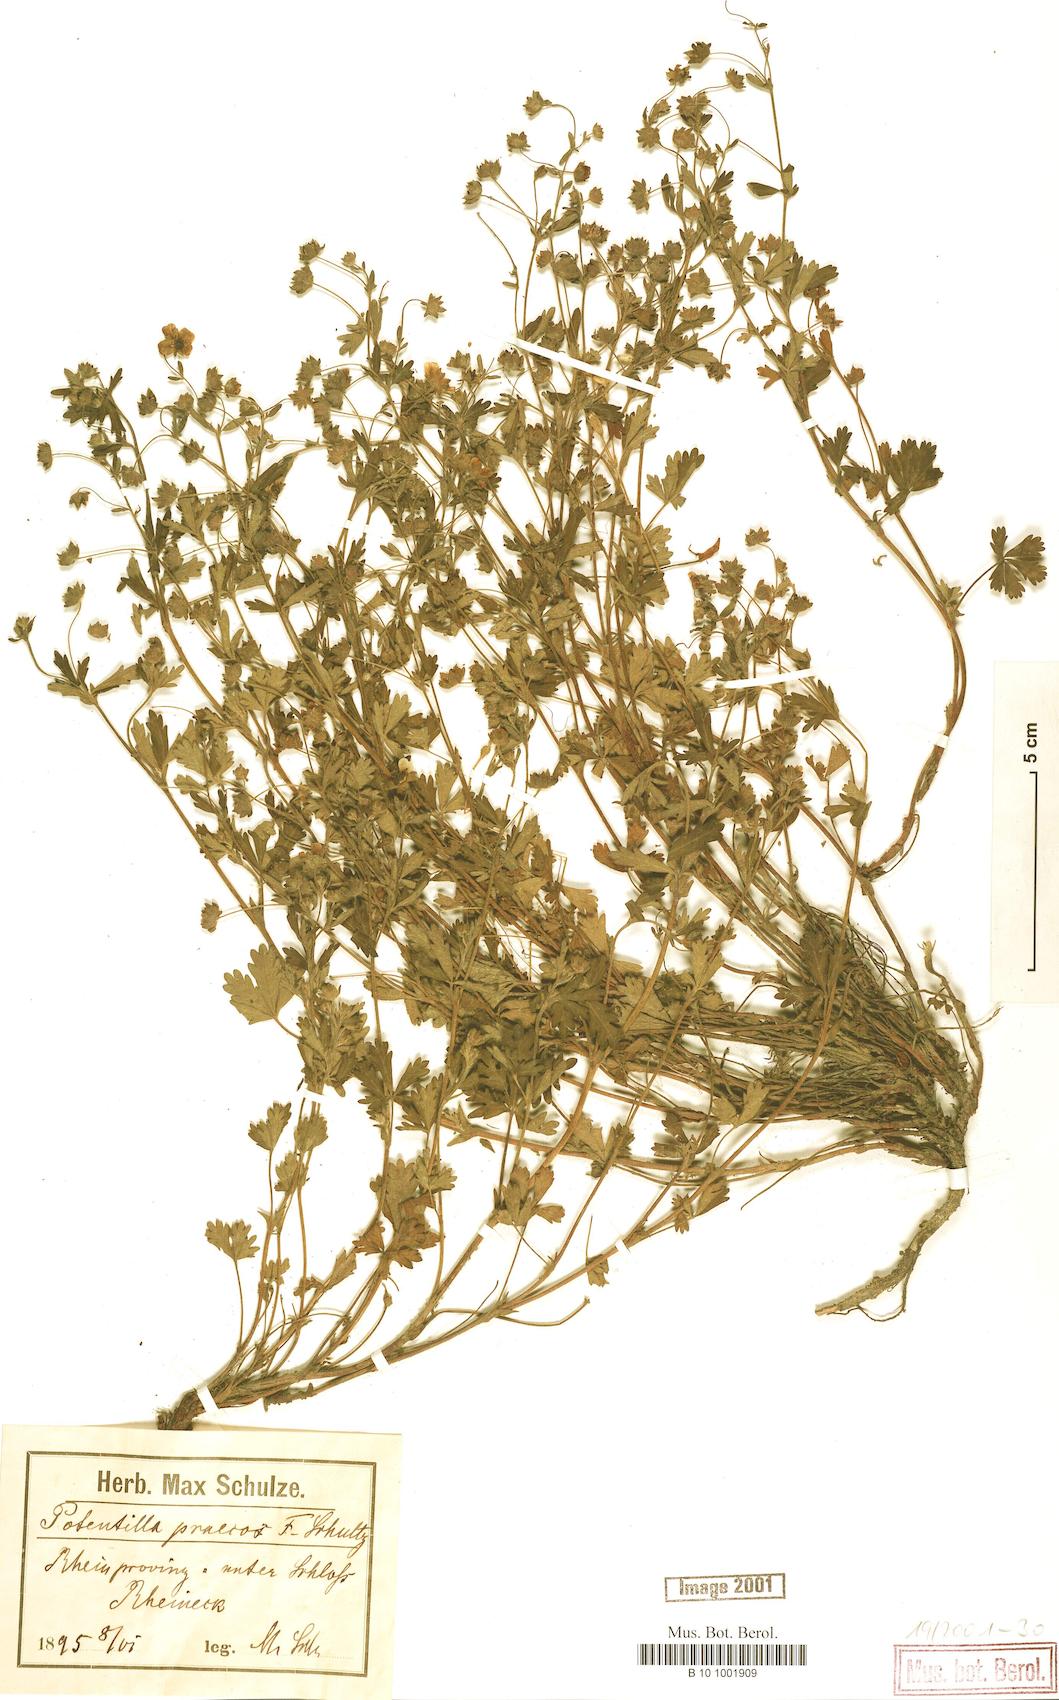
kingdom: Plantae
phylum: Tracheophyta
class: Magnoliopsida
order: Rosales
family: Rosaceae
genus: Potentilla
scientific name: Potentilla praecox
